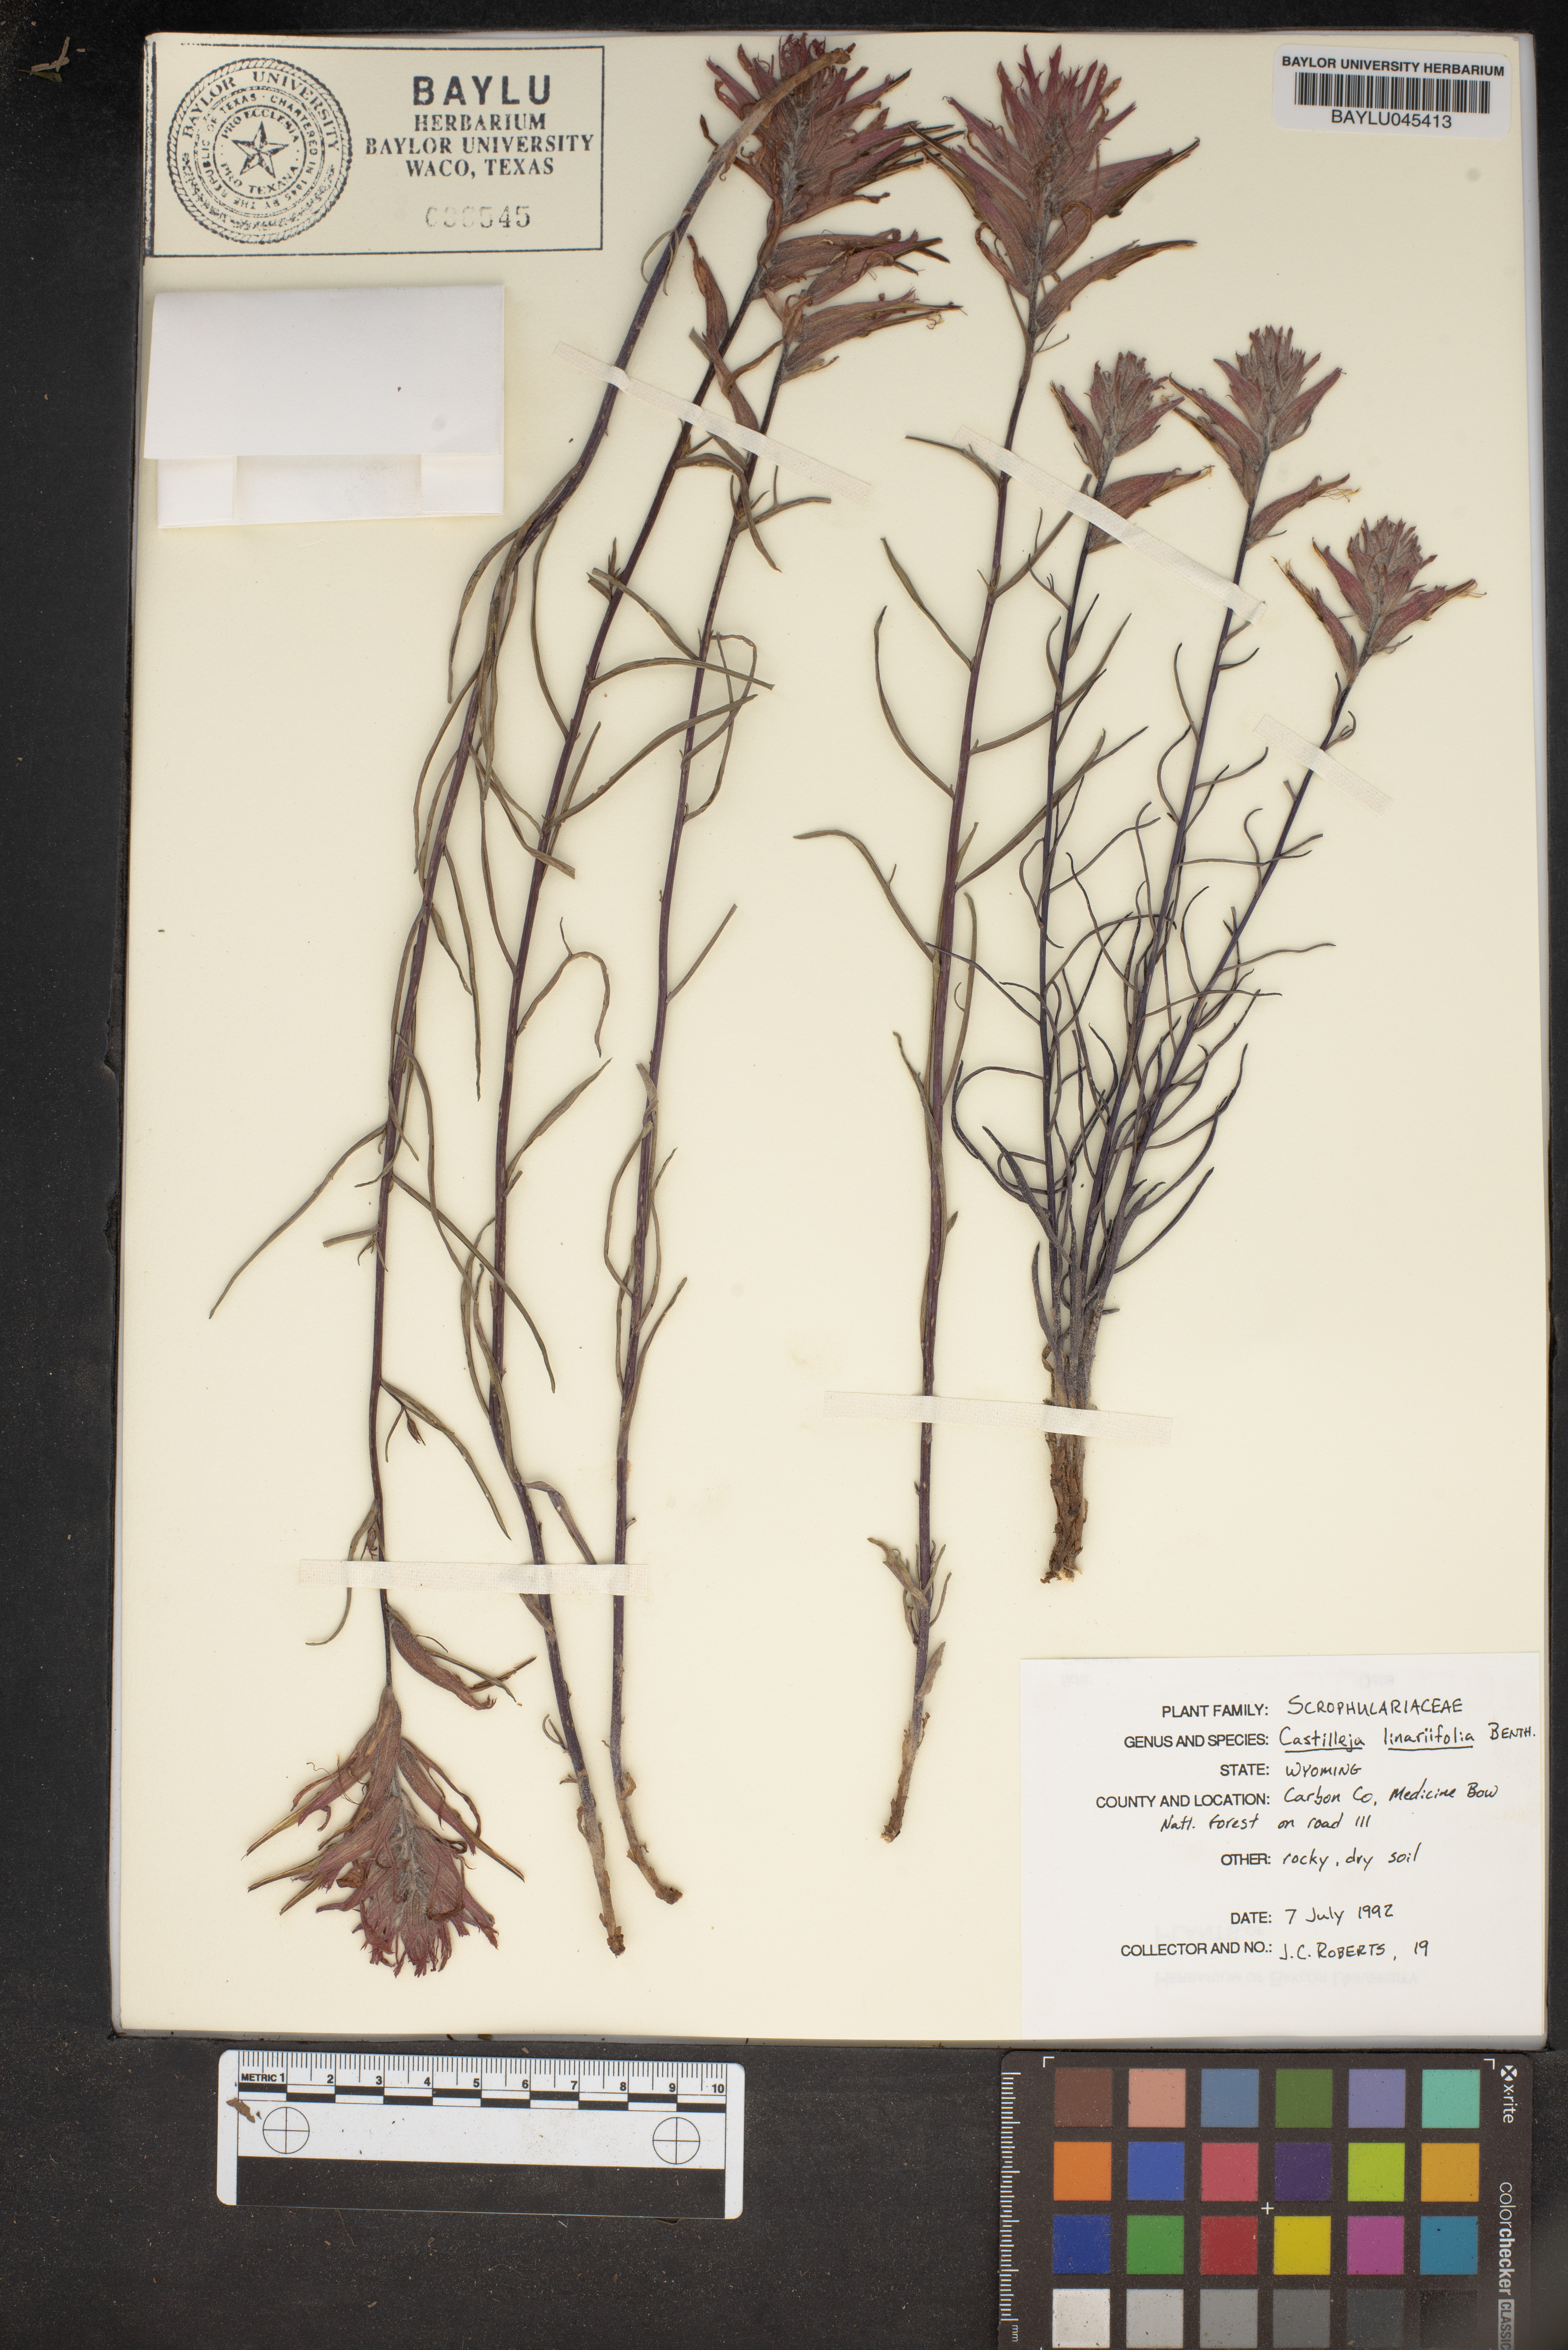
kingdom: Plantae
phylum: Tracheophyta
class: Magnoliopsida
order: Lamiales
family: Orobanchaceae
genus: Castilleja
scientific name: Castilleja linariifolia
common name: Wyoming paintbrush
